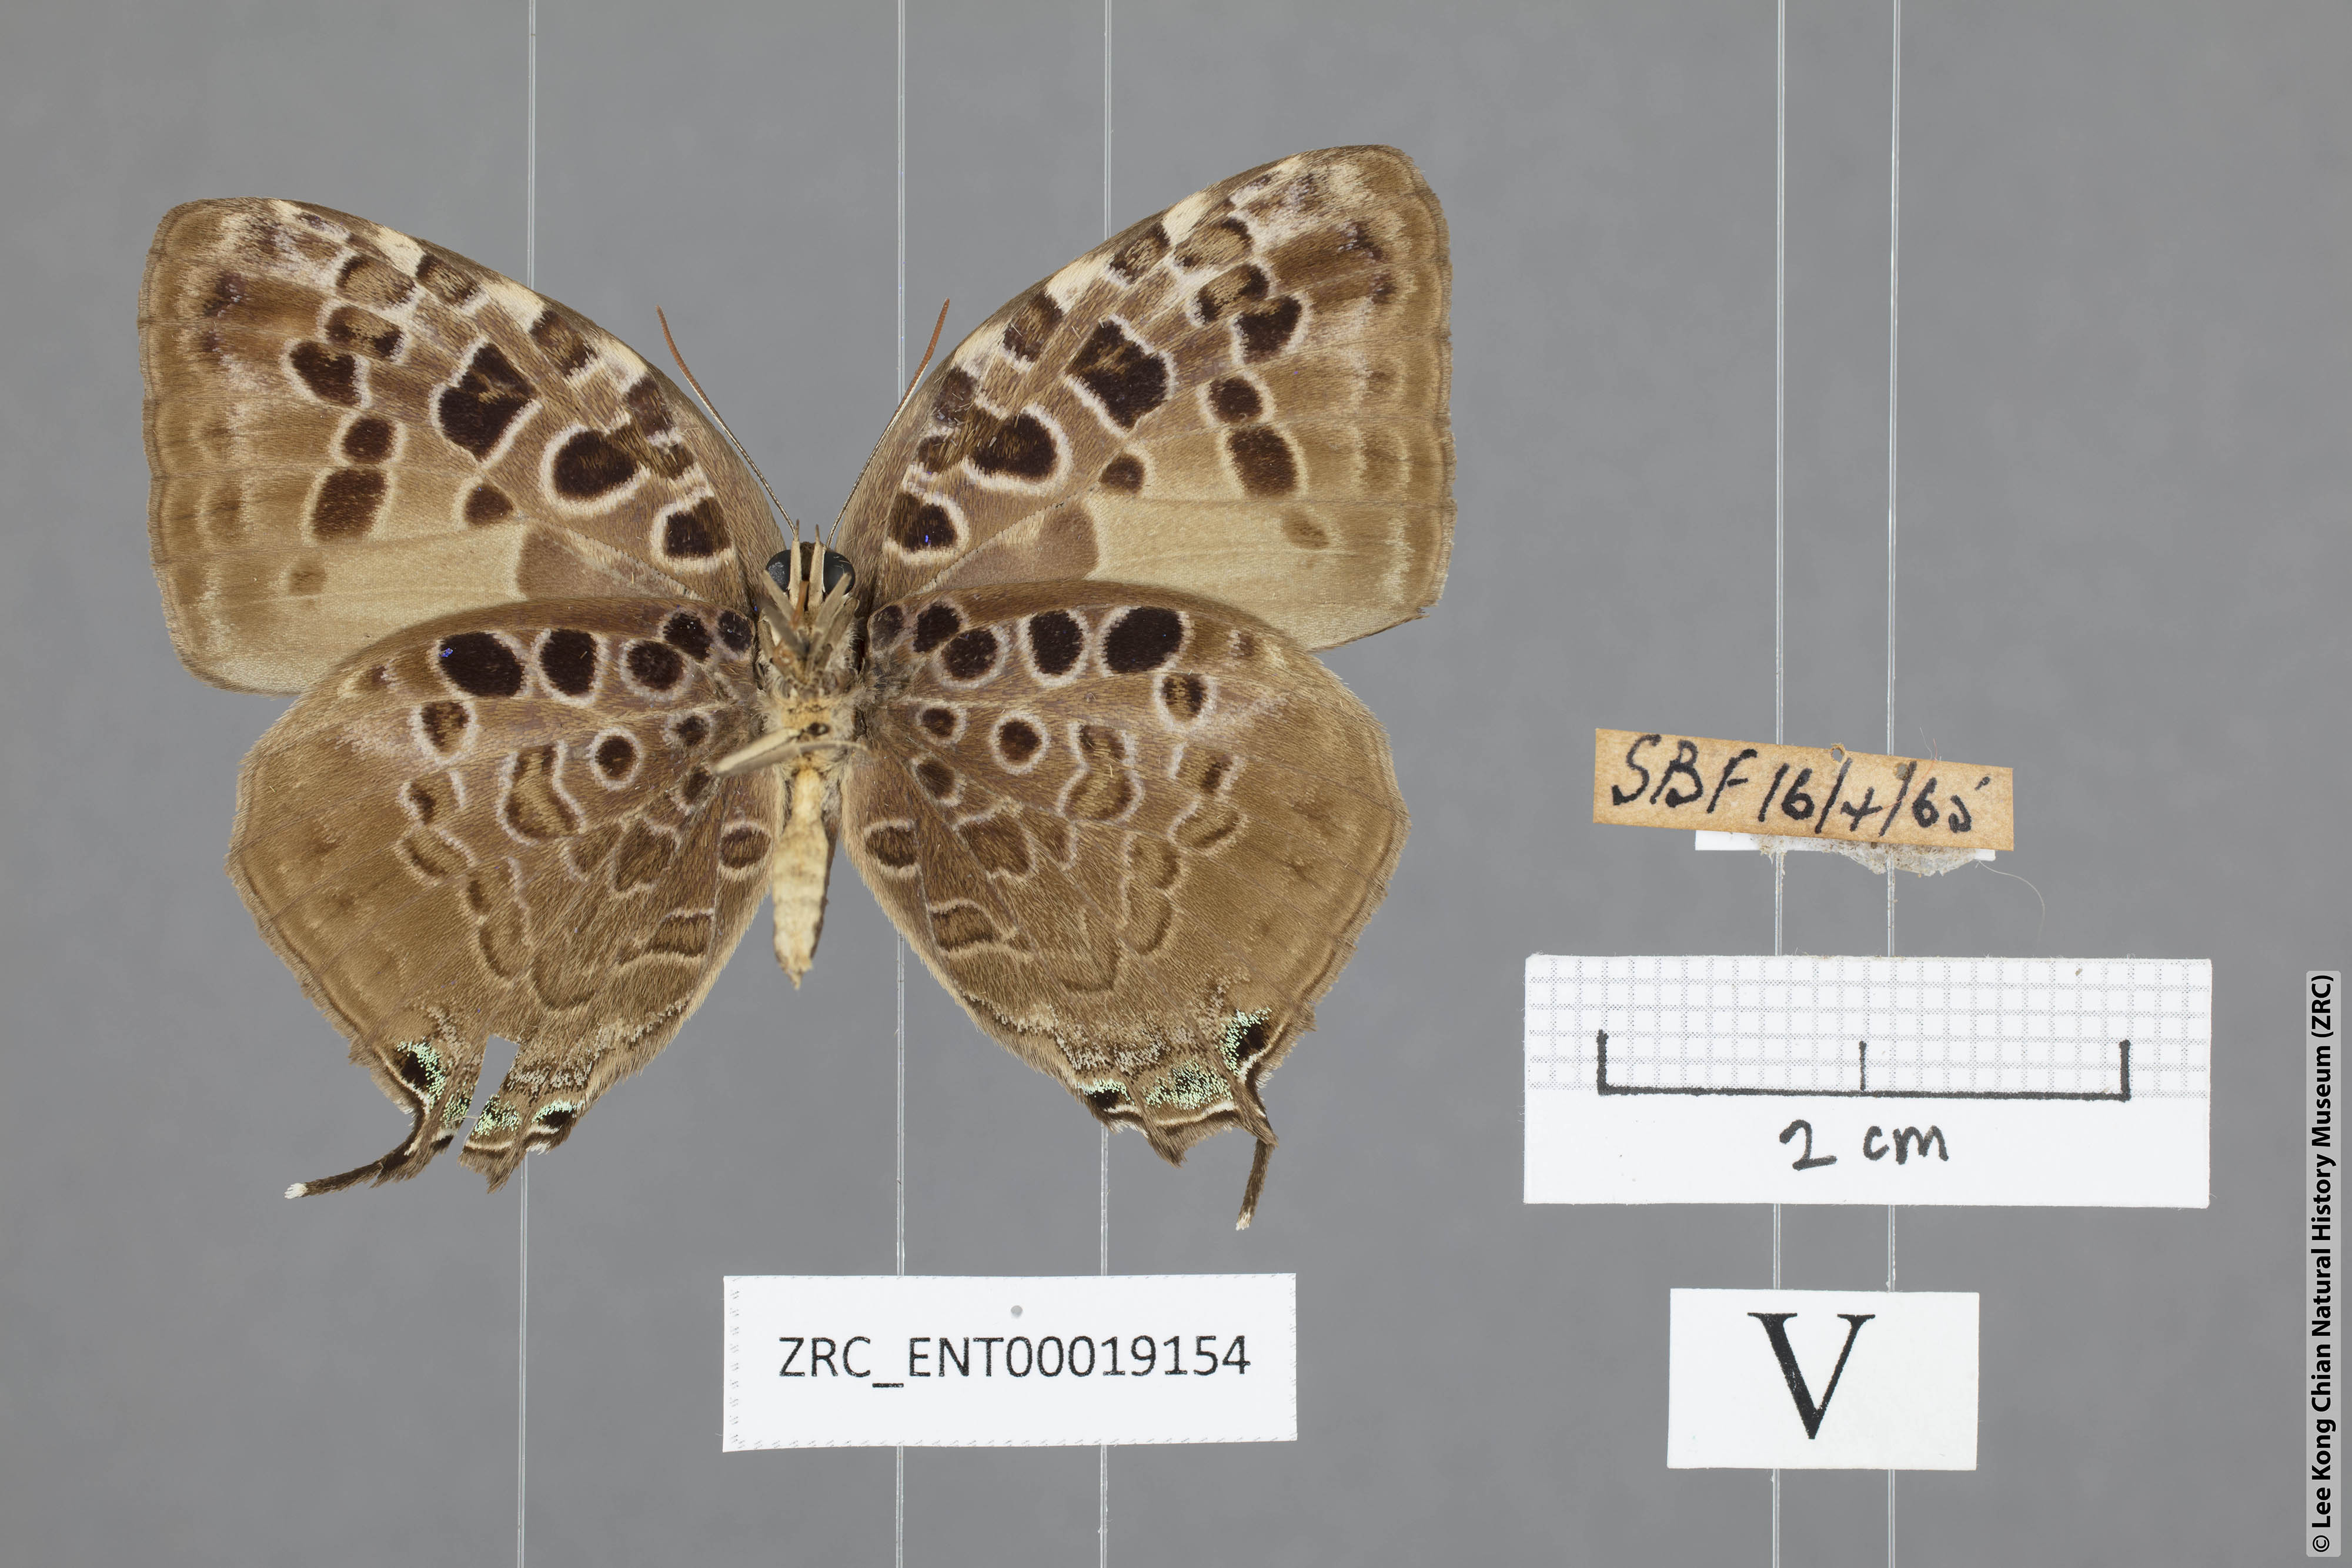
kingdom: Animalia
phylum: Arthropoda
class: Insecta
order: Lepidoptera
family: Lycaenidae
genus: Arhopala
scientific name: Arhopala anthelus
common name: Bushblue
